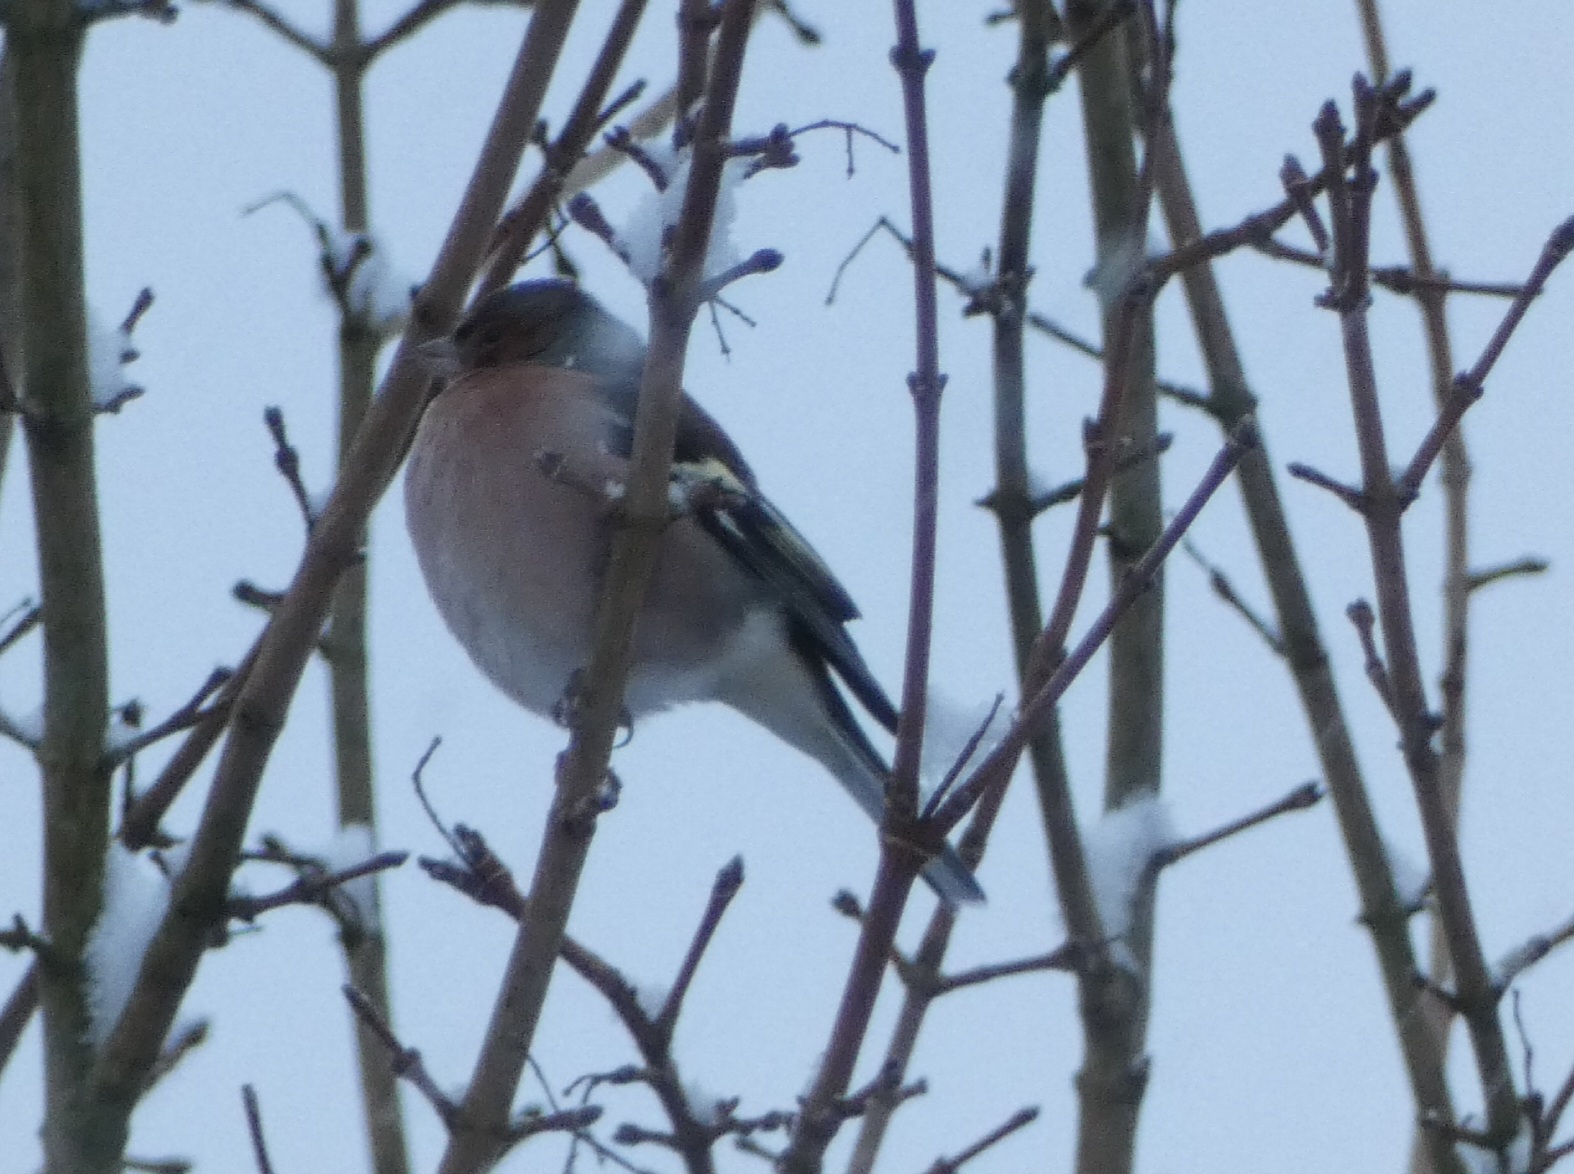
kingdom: Animalia
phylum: Chordata
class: Aves
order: Passeriformes
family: Fringillidae
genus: Fringilla
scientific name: Fringilla coelebs
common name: Bogfinke
